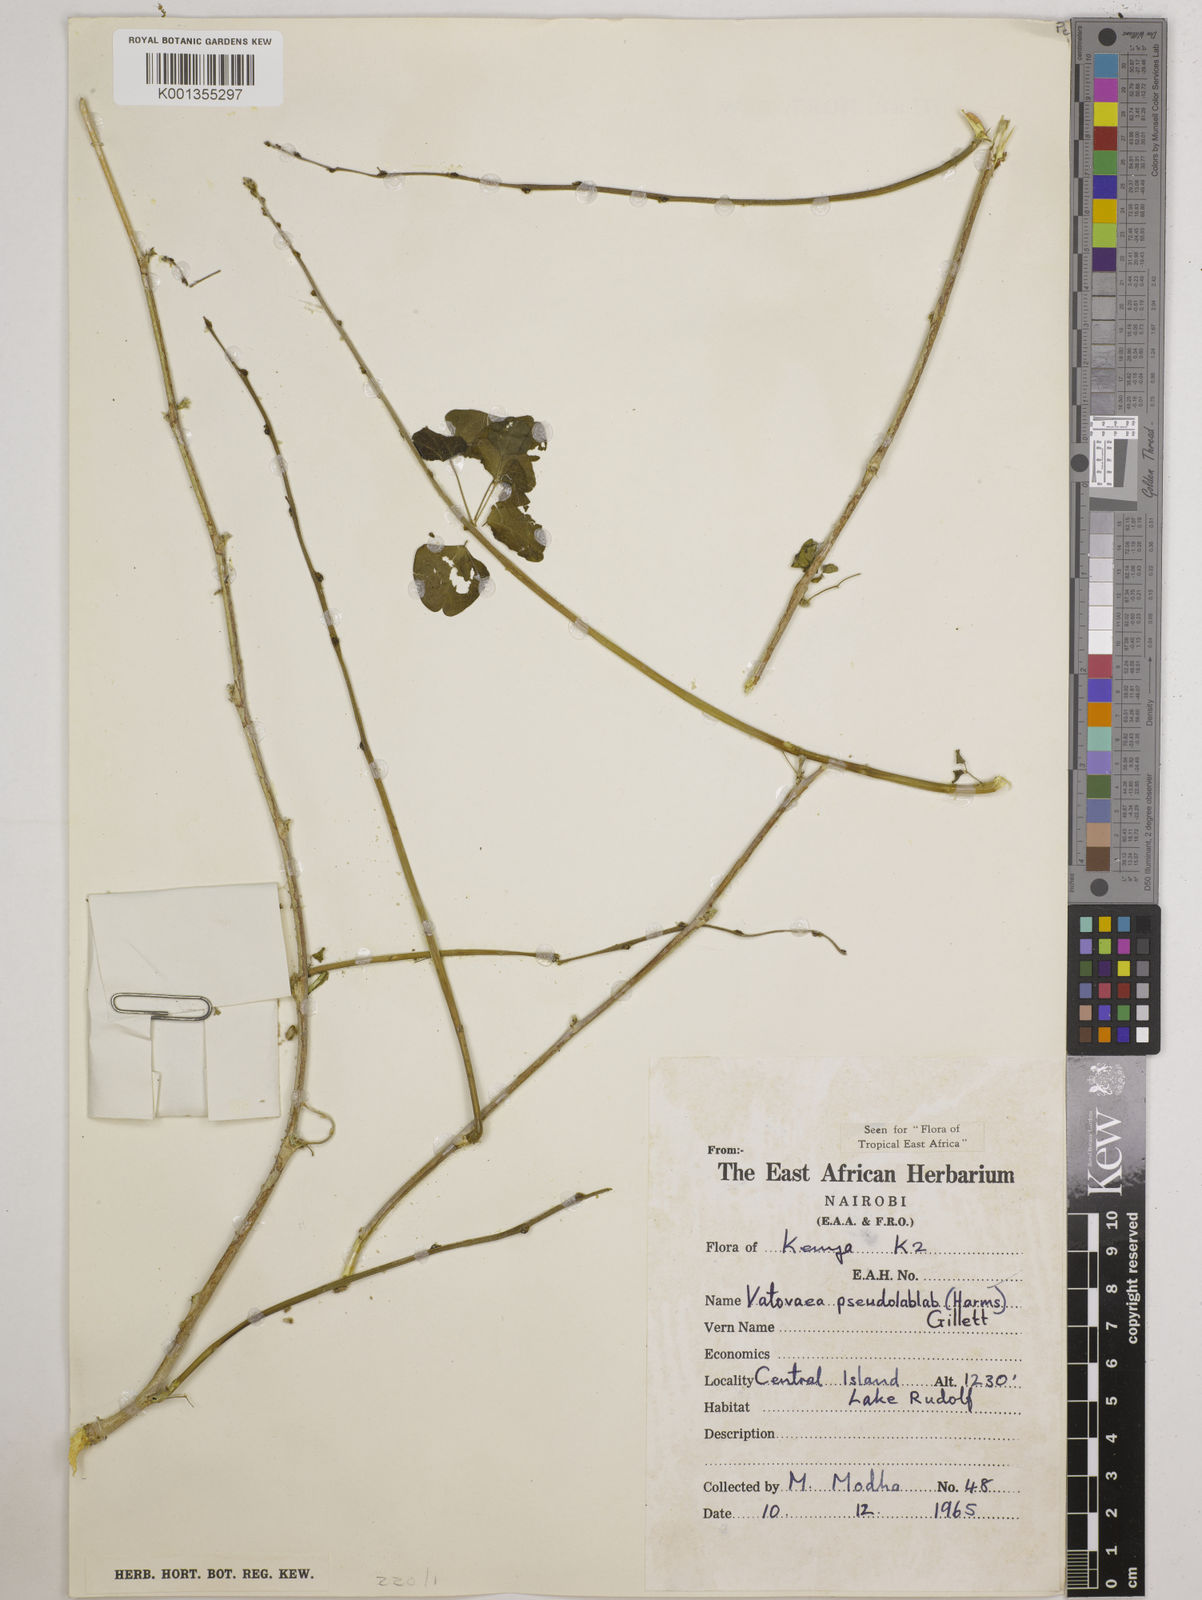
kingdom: Plantae
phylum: Tracheophyta
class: Magnoliopsida
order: Fabales
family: Fabaceae
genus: Vatovaea
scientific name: Vatovaea pseudolablab
